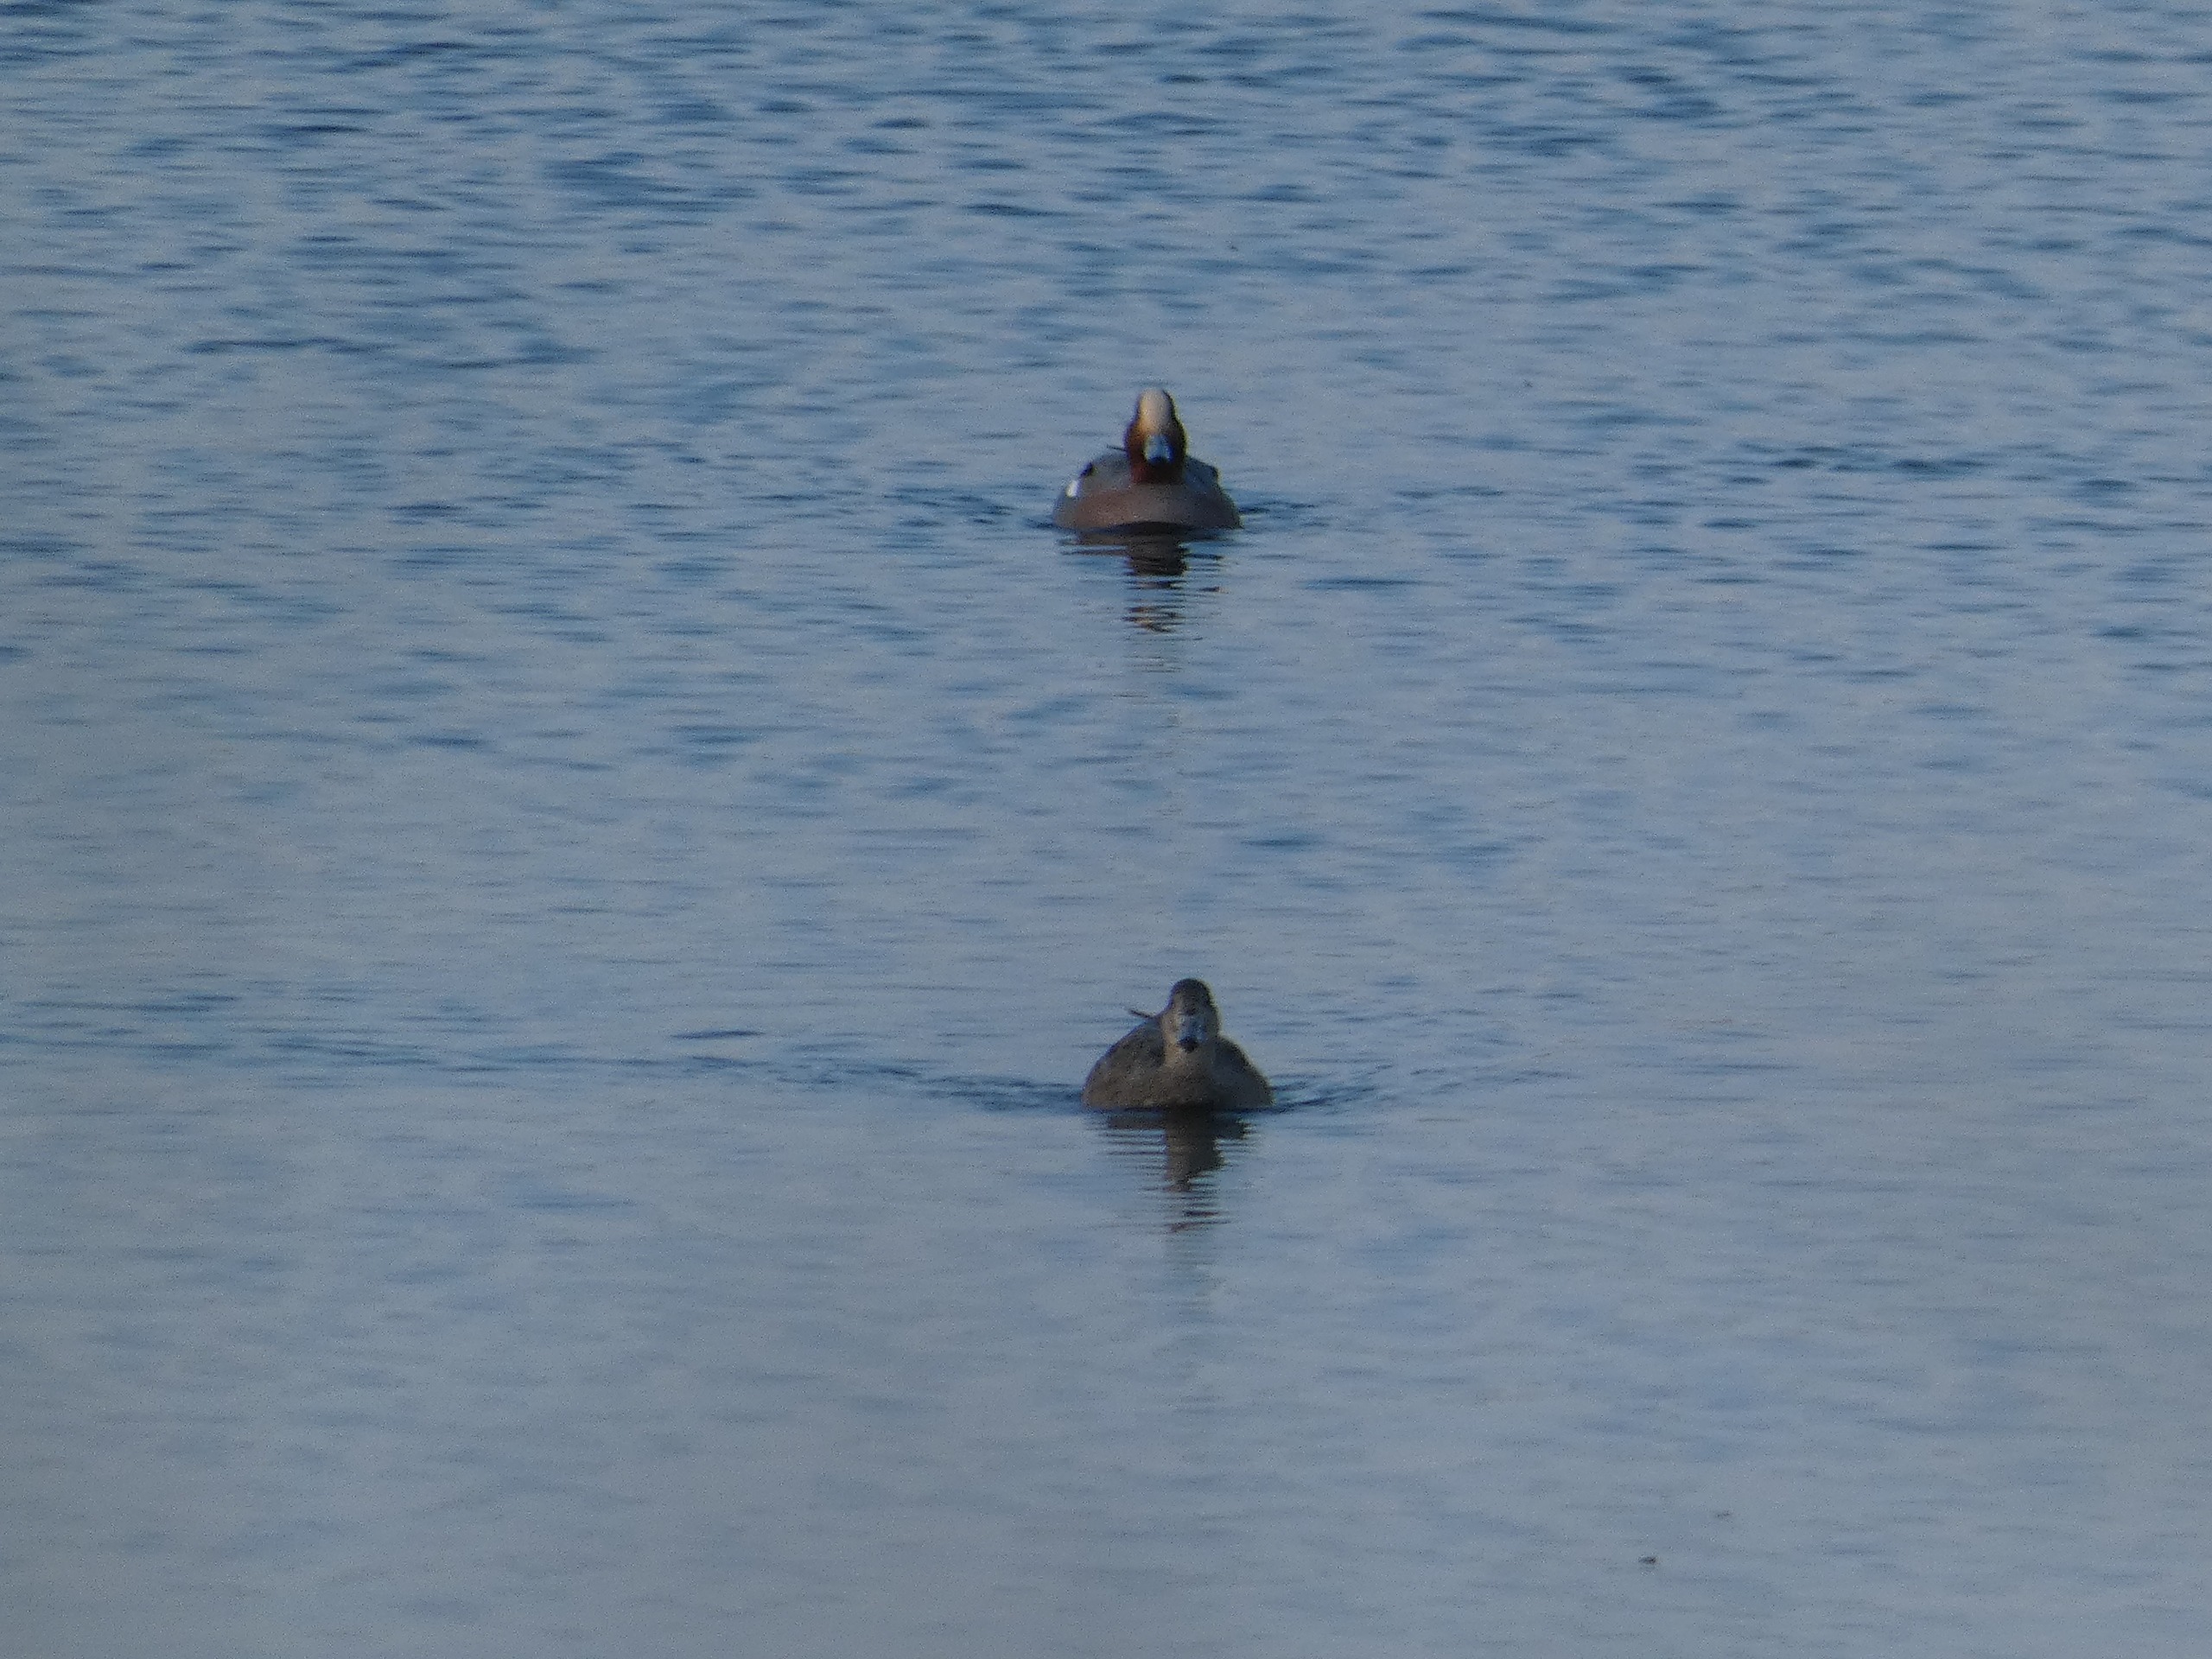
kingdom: Animalia
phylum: Chordata
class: Aves
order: Anseriformes
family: Anatidae
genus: Mareca
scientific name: Mareca penelope
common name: Pibeand
